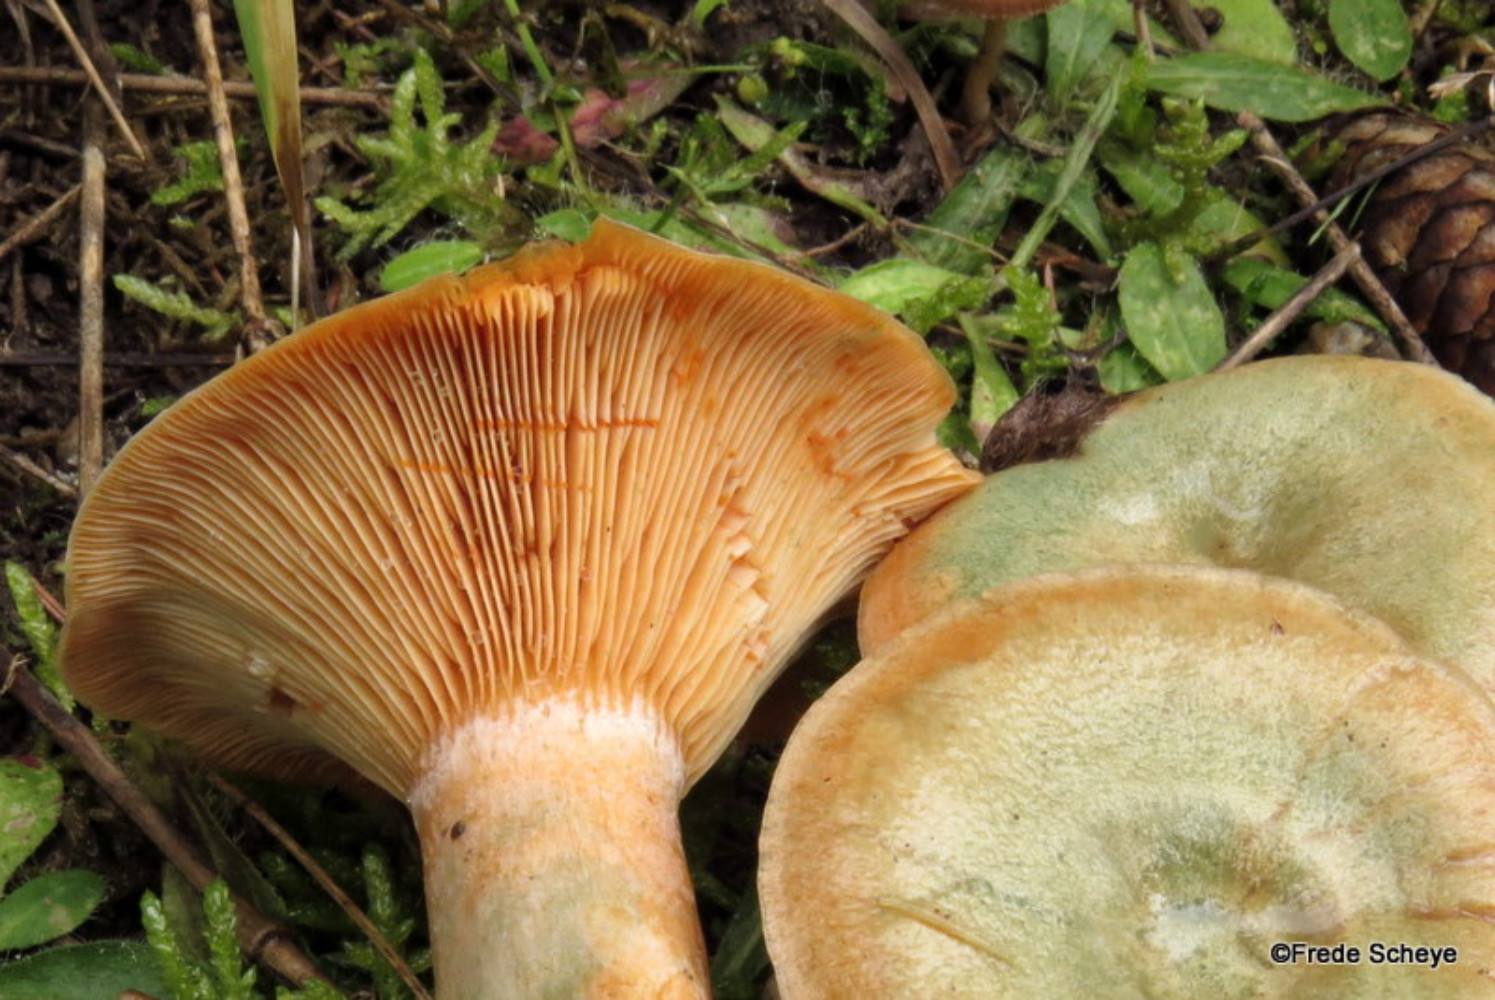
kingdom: Fungi
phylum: Basidiomycota
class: Agaricomycetes
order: Russulales
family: Russulaceae
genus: Lactarius
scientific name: Lactarius deterrimus
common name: gran-mælkehat
